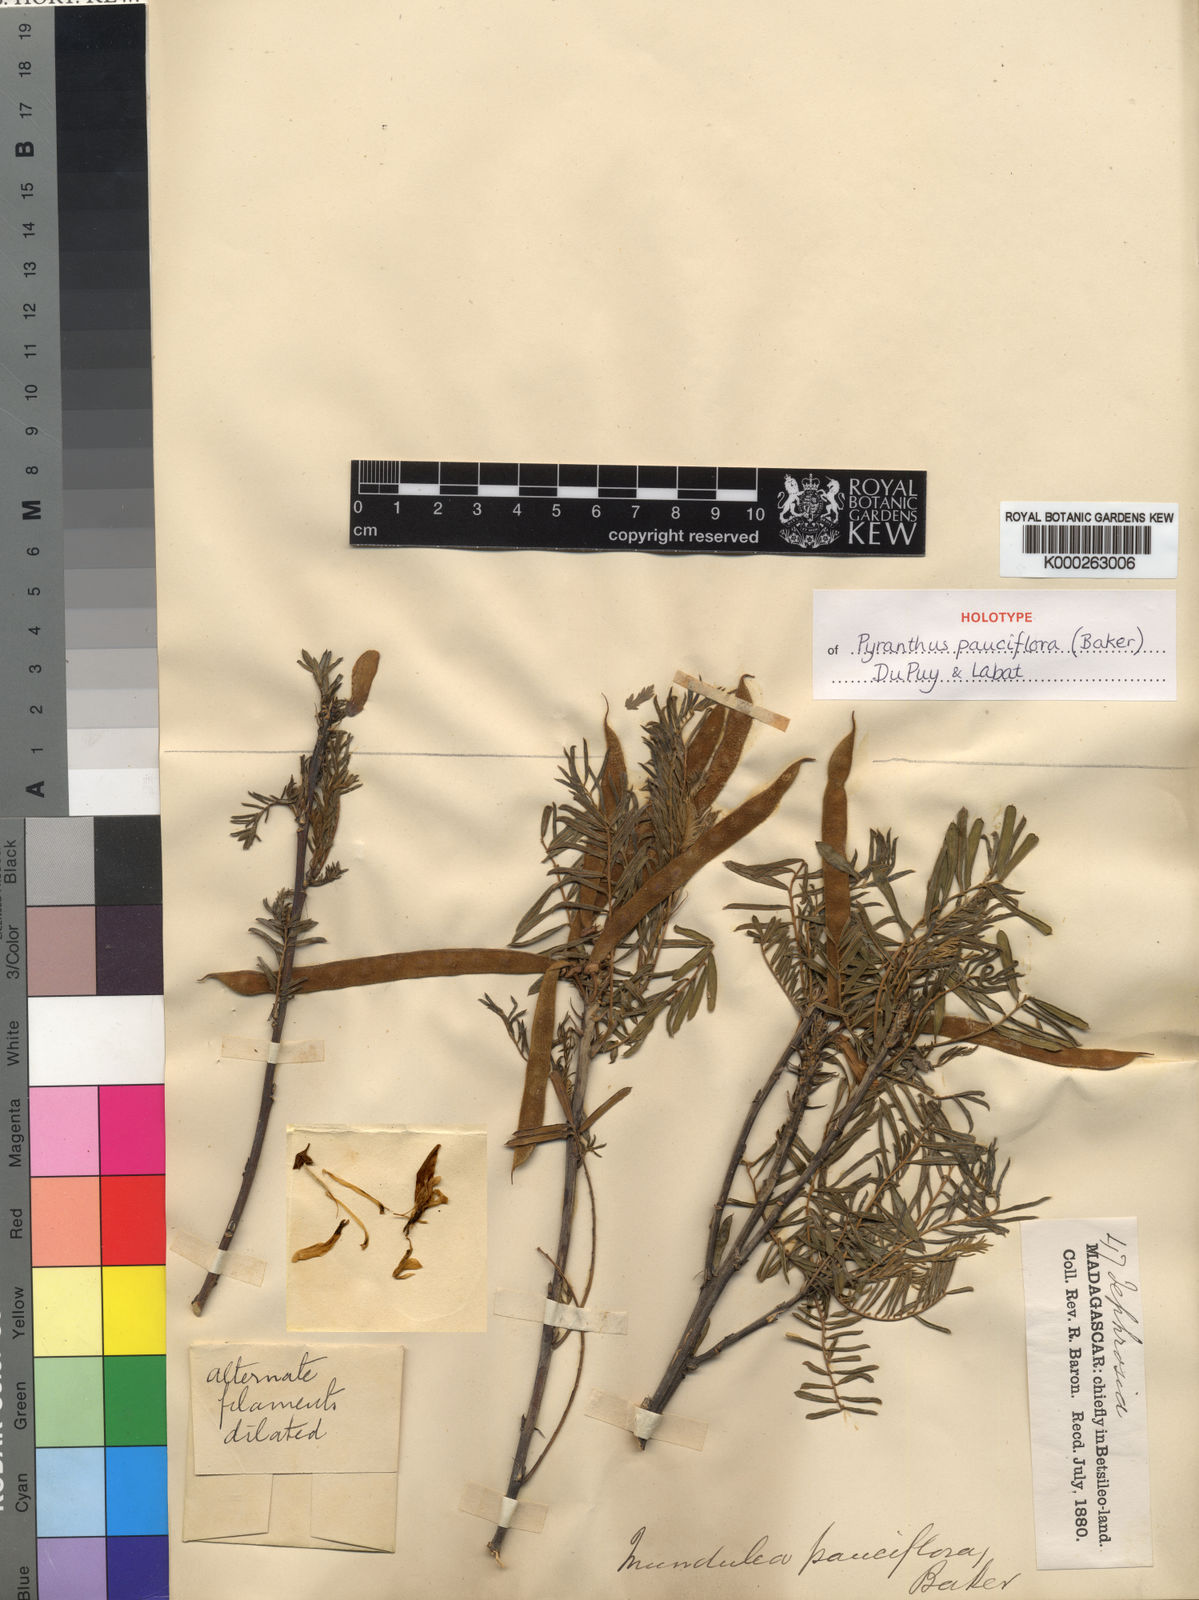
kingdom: Plantae
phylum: Tracheophyta
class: Magnoliopsida
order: Fabales
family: Fabaceae
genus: Pyranthus
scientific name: Pyranthus pauciflorus
